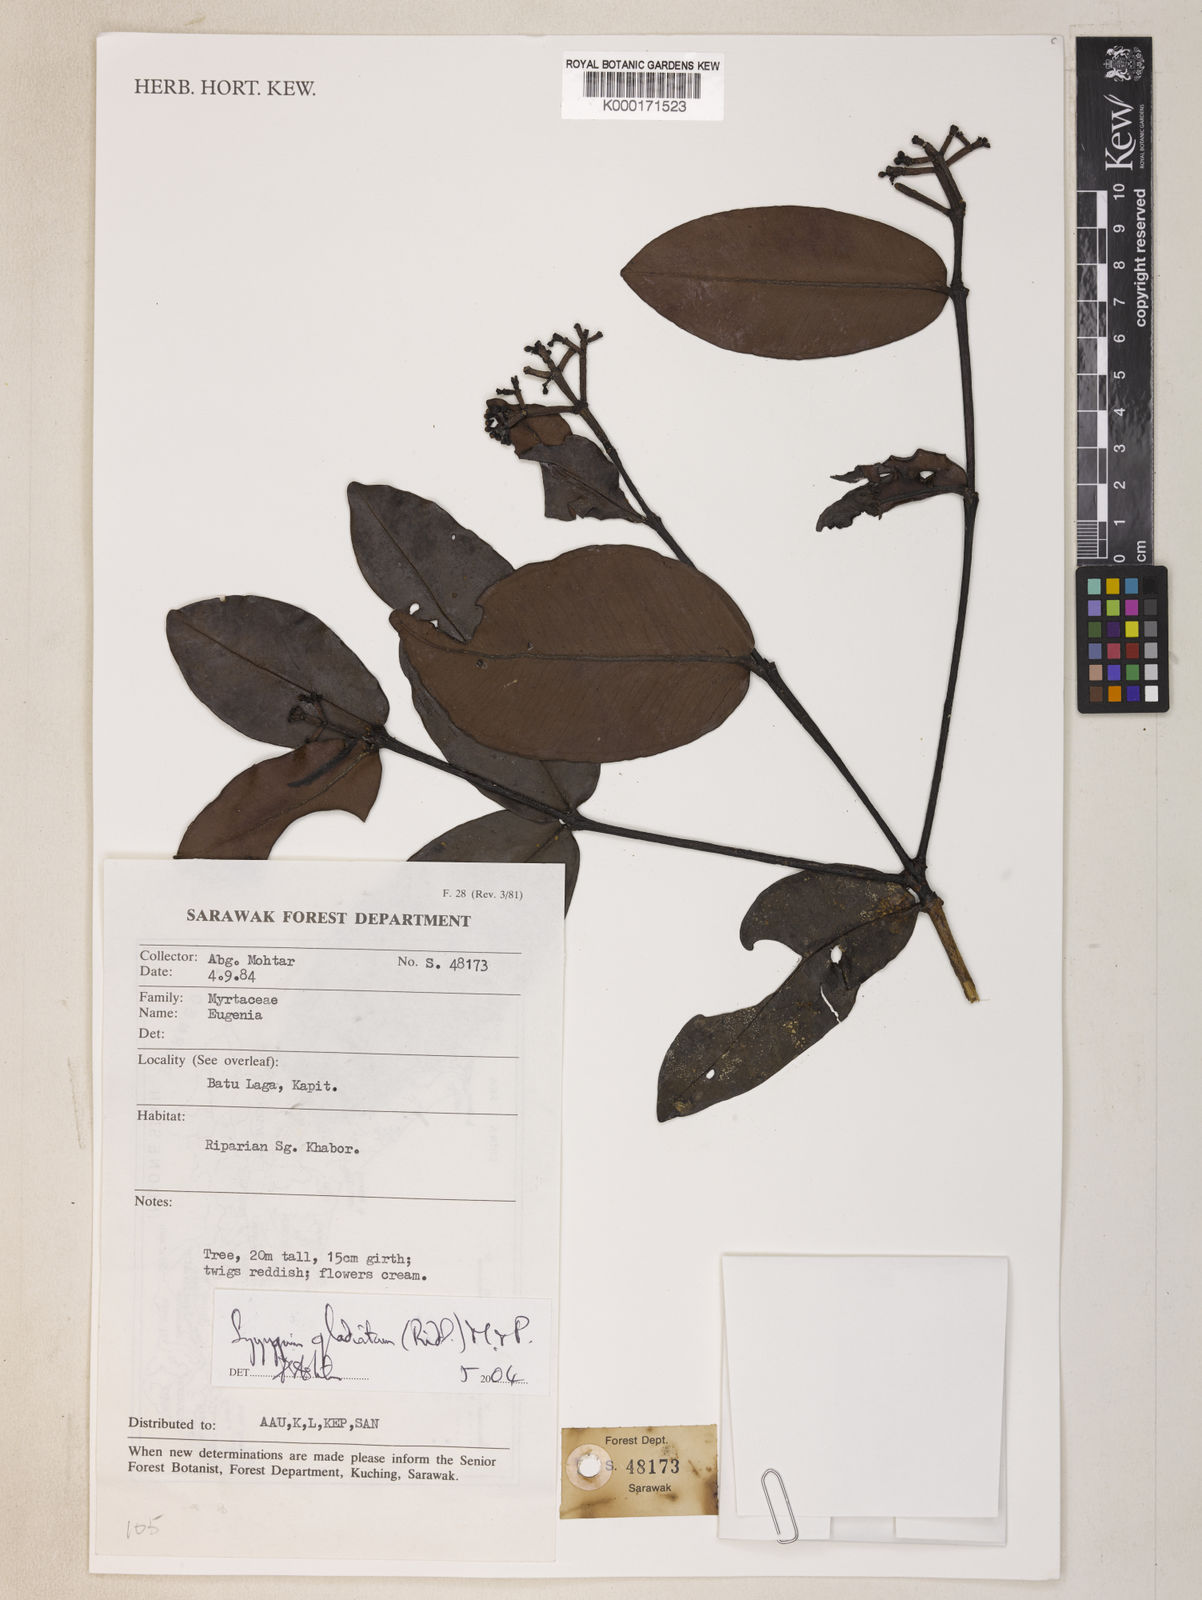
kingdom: Plantae
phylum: Tracheophyta
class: Magnoliopsida
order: Myrtales
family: Myrtaceae
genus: Syzygium
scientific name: Syzygium gladiatum
